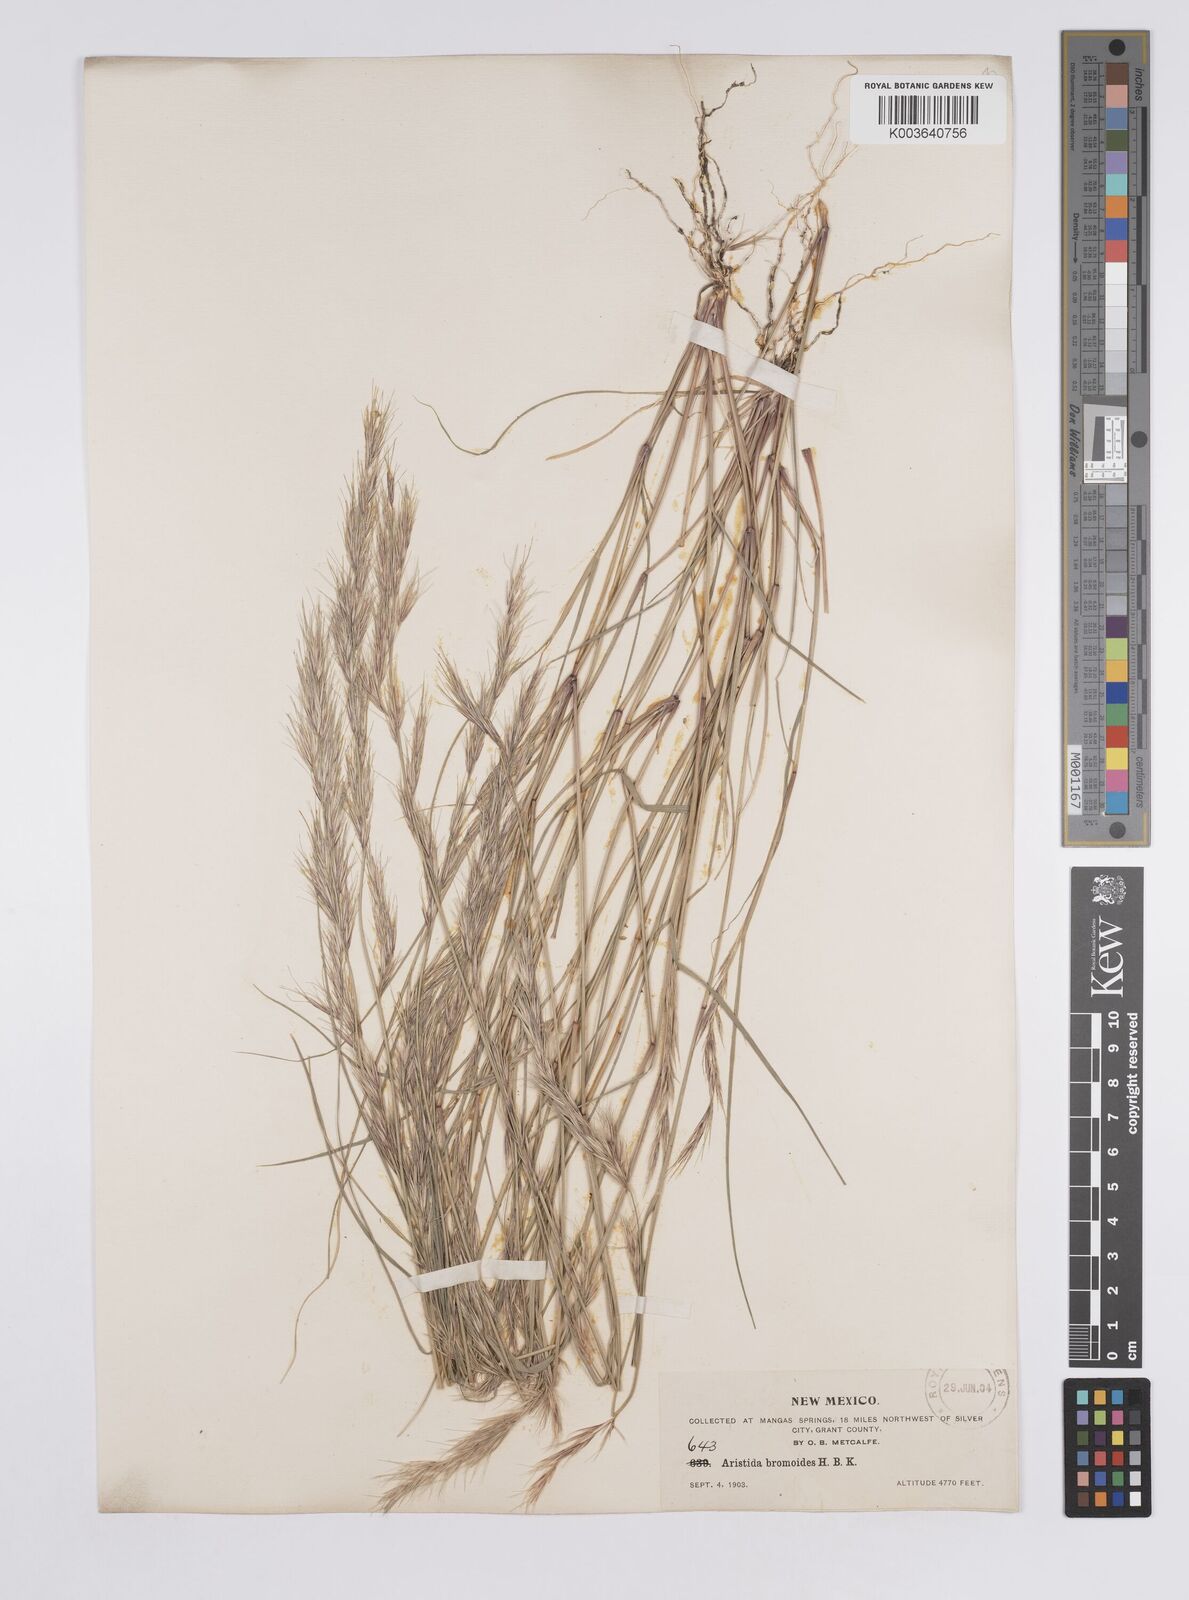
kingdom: Plantae
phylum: Tracheophyta
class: Liliopsida
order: Poales
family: Poaceae
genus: Aristida
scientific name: Aristida adscensionis
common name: Sixweeks threeawn
